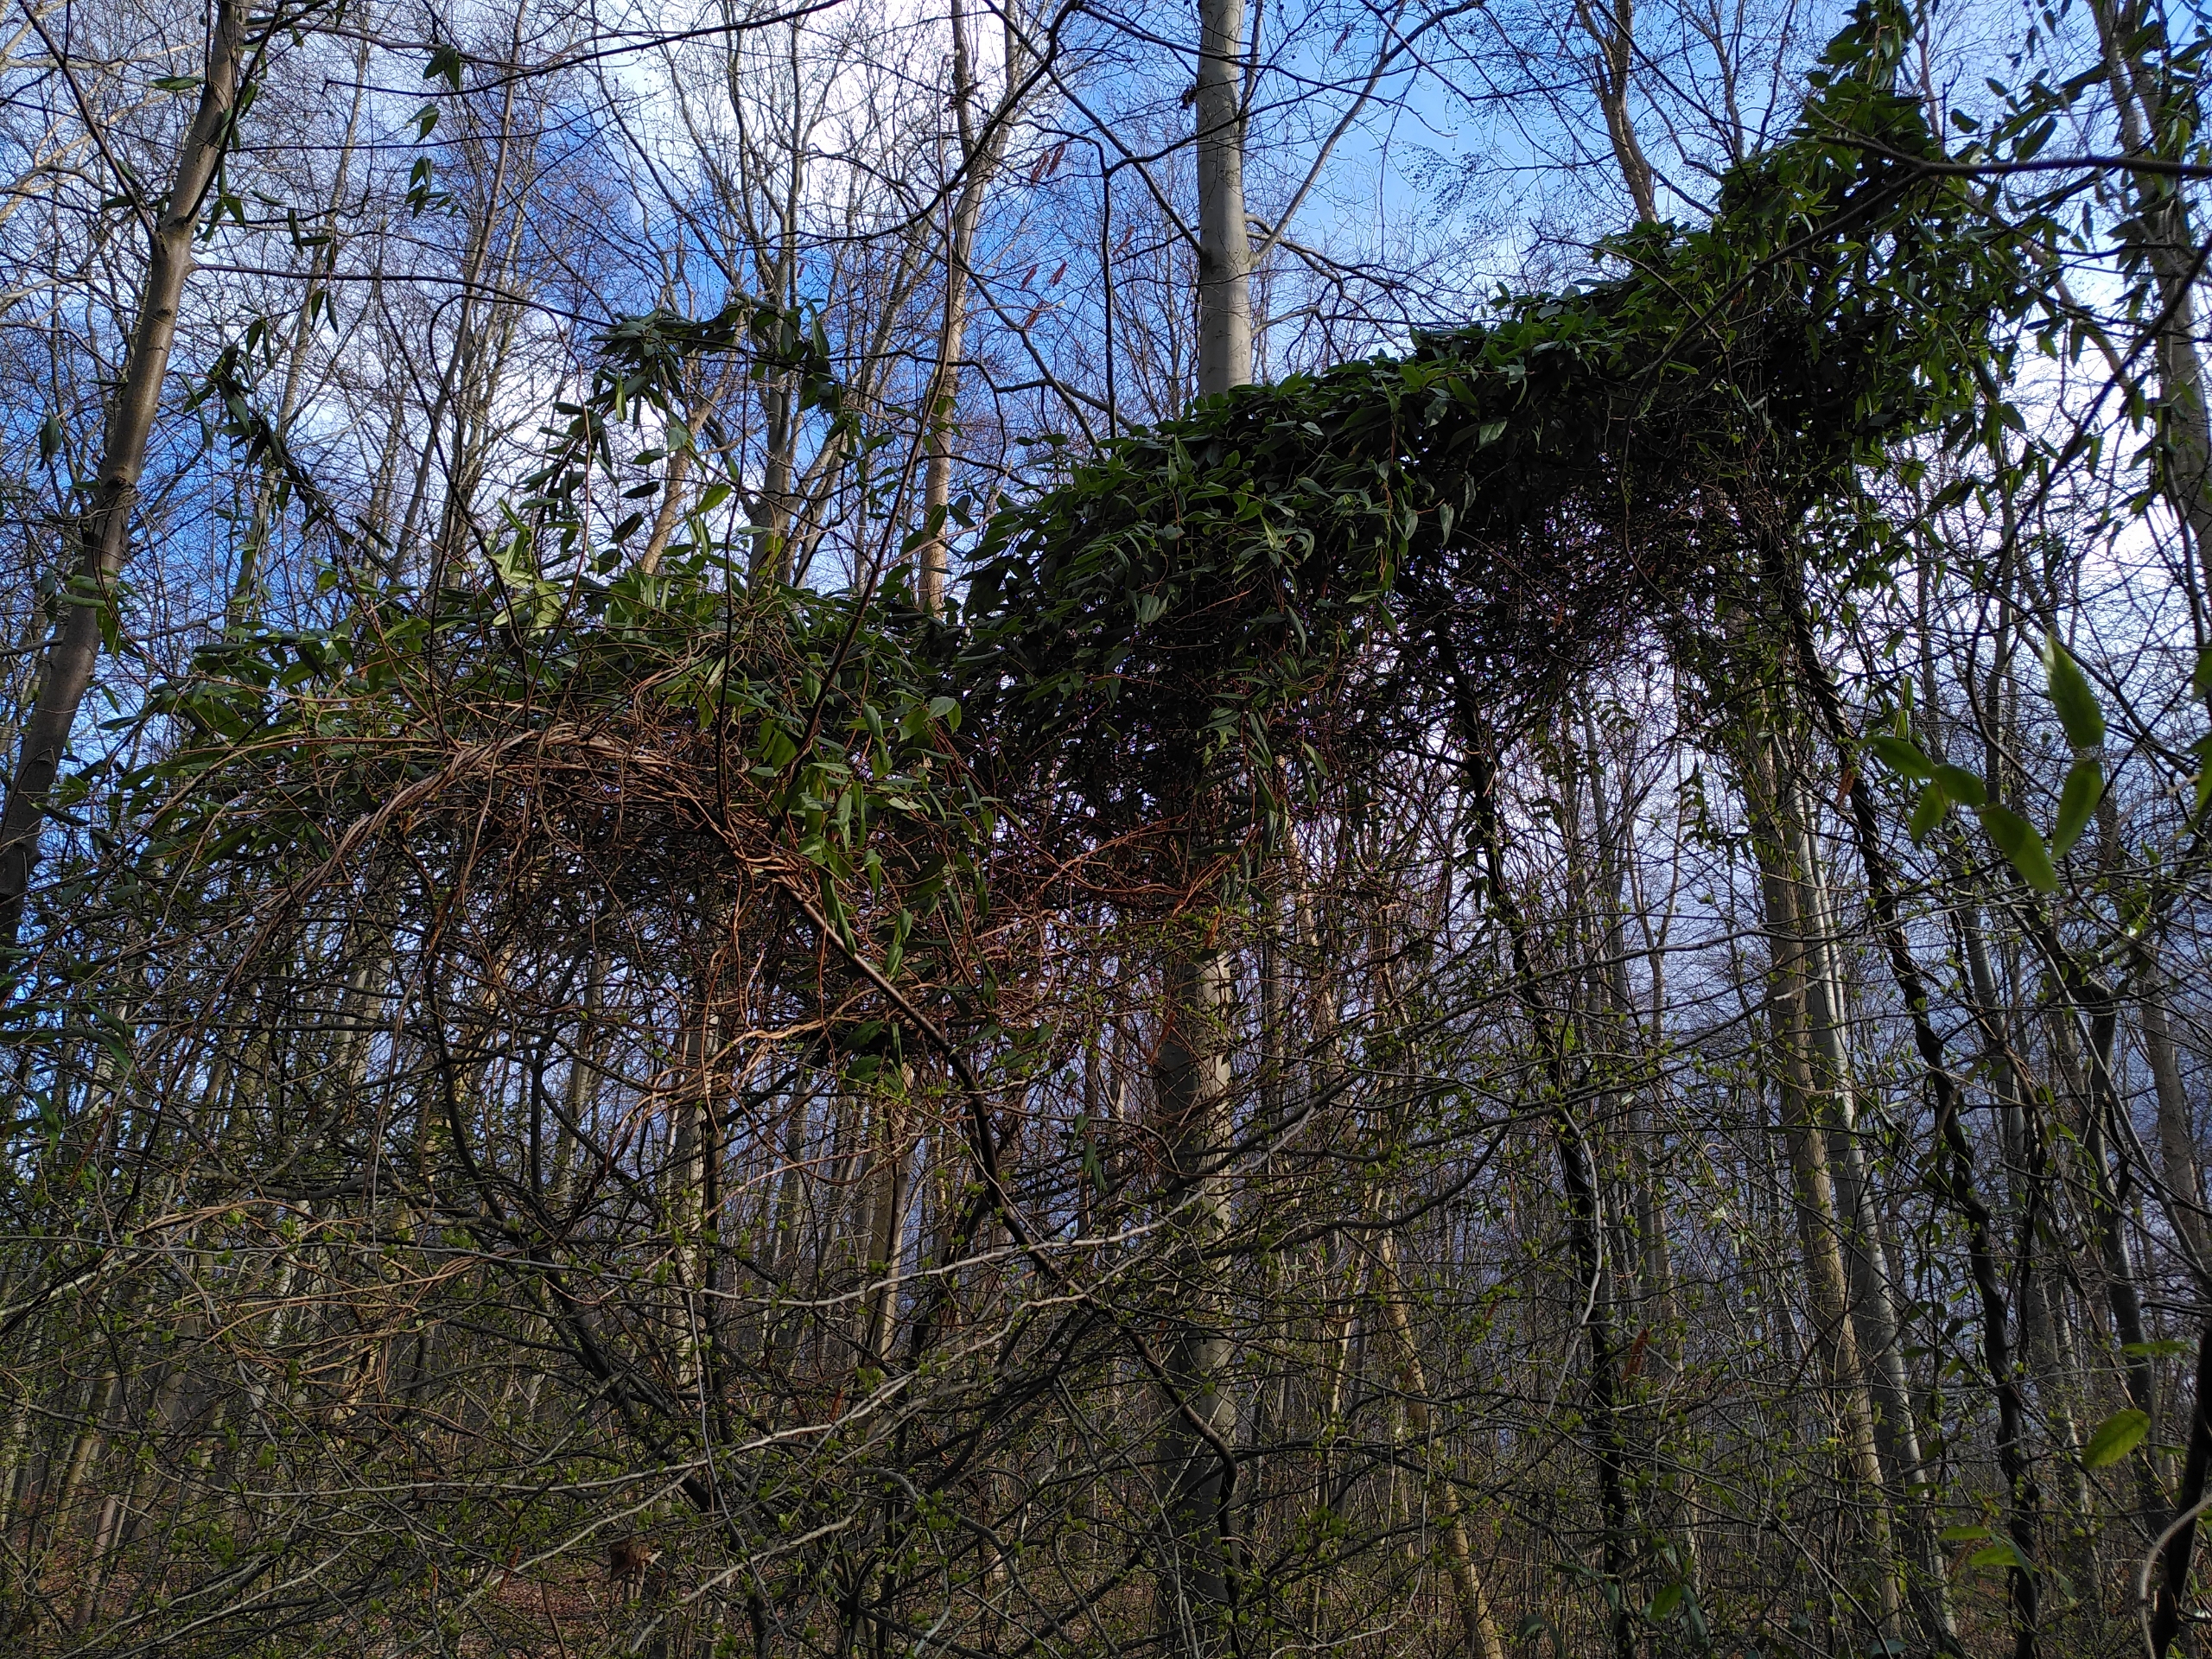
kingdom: Plantae
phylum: Tracheophyta
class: Magnoliopsida
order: Dipsacales
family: Caprifoliaceae
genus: Lonicera
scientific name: Lonicera acuminata
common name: Henrys gedeblad
